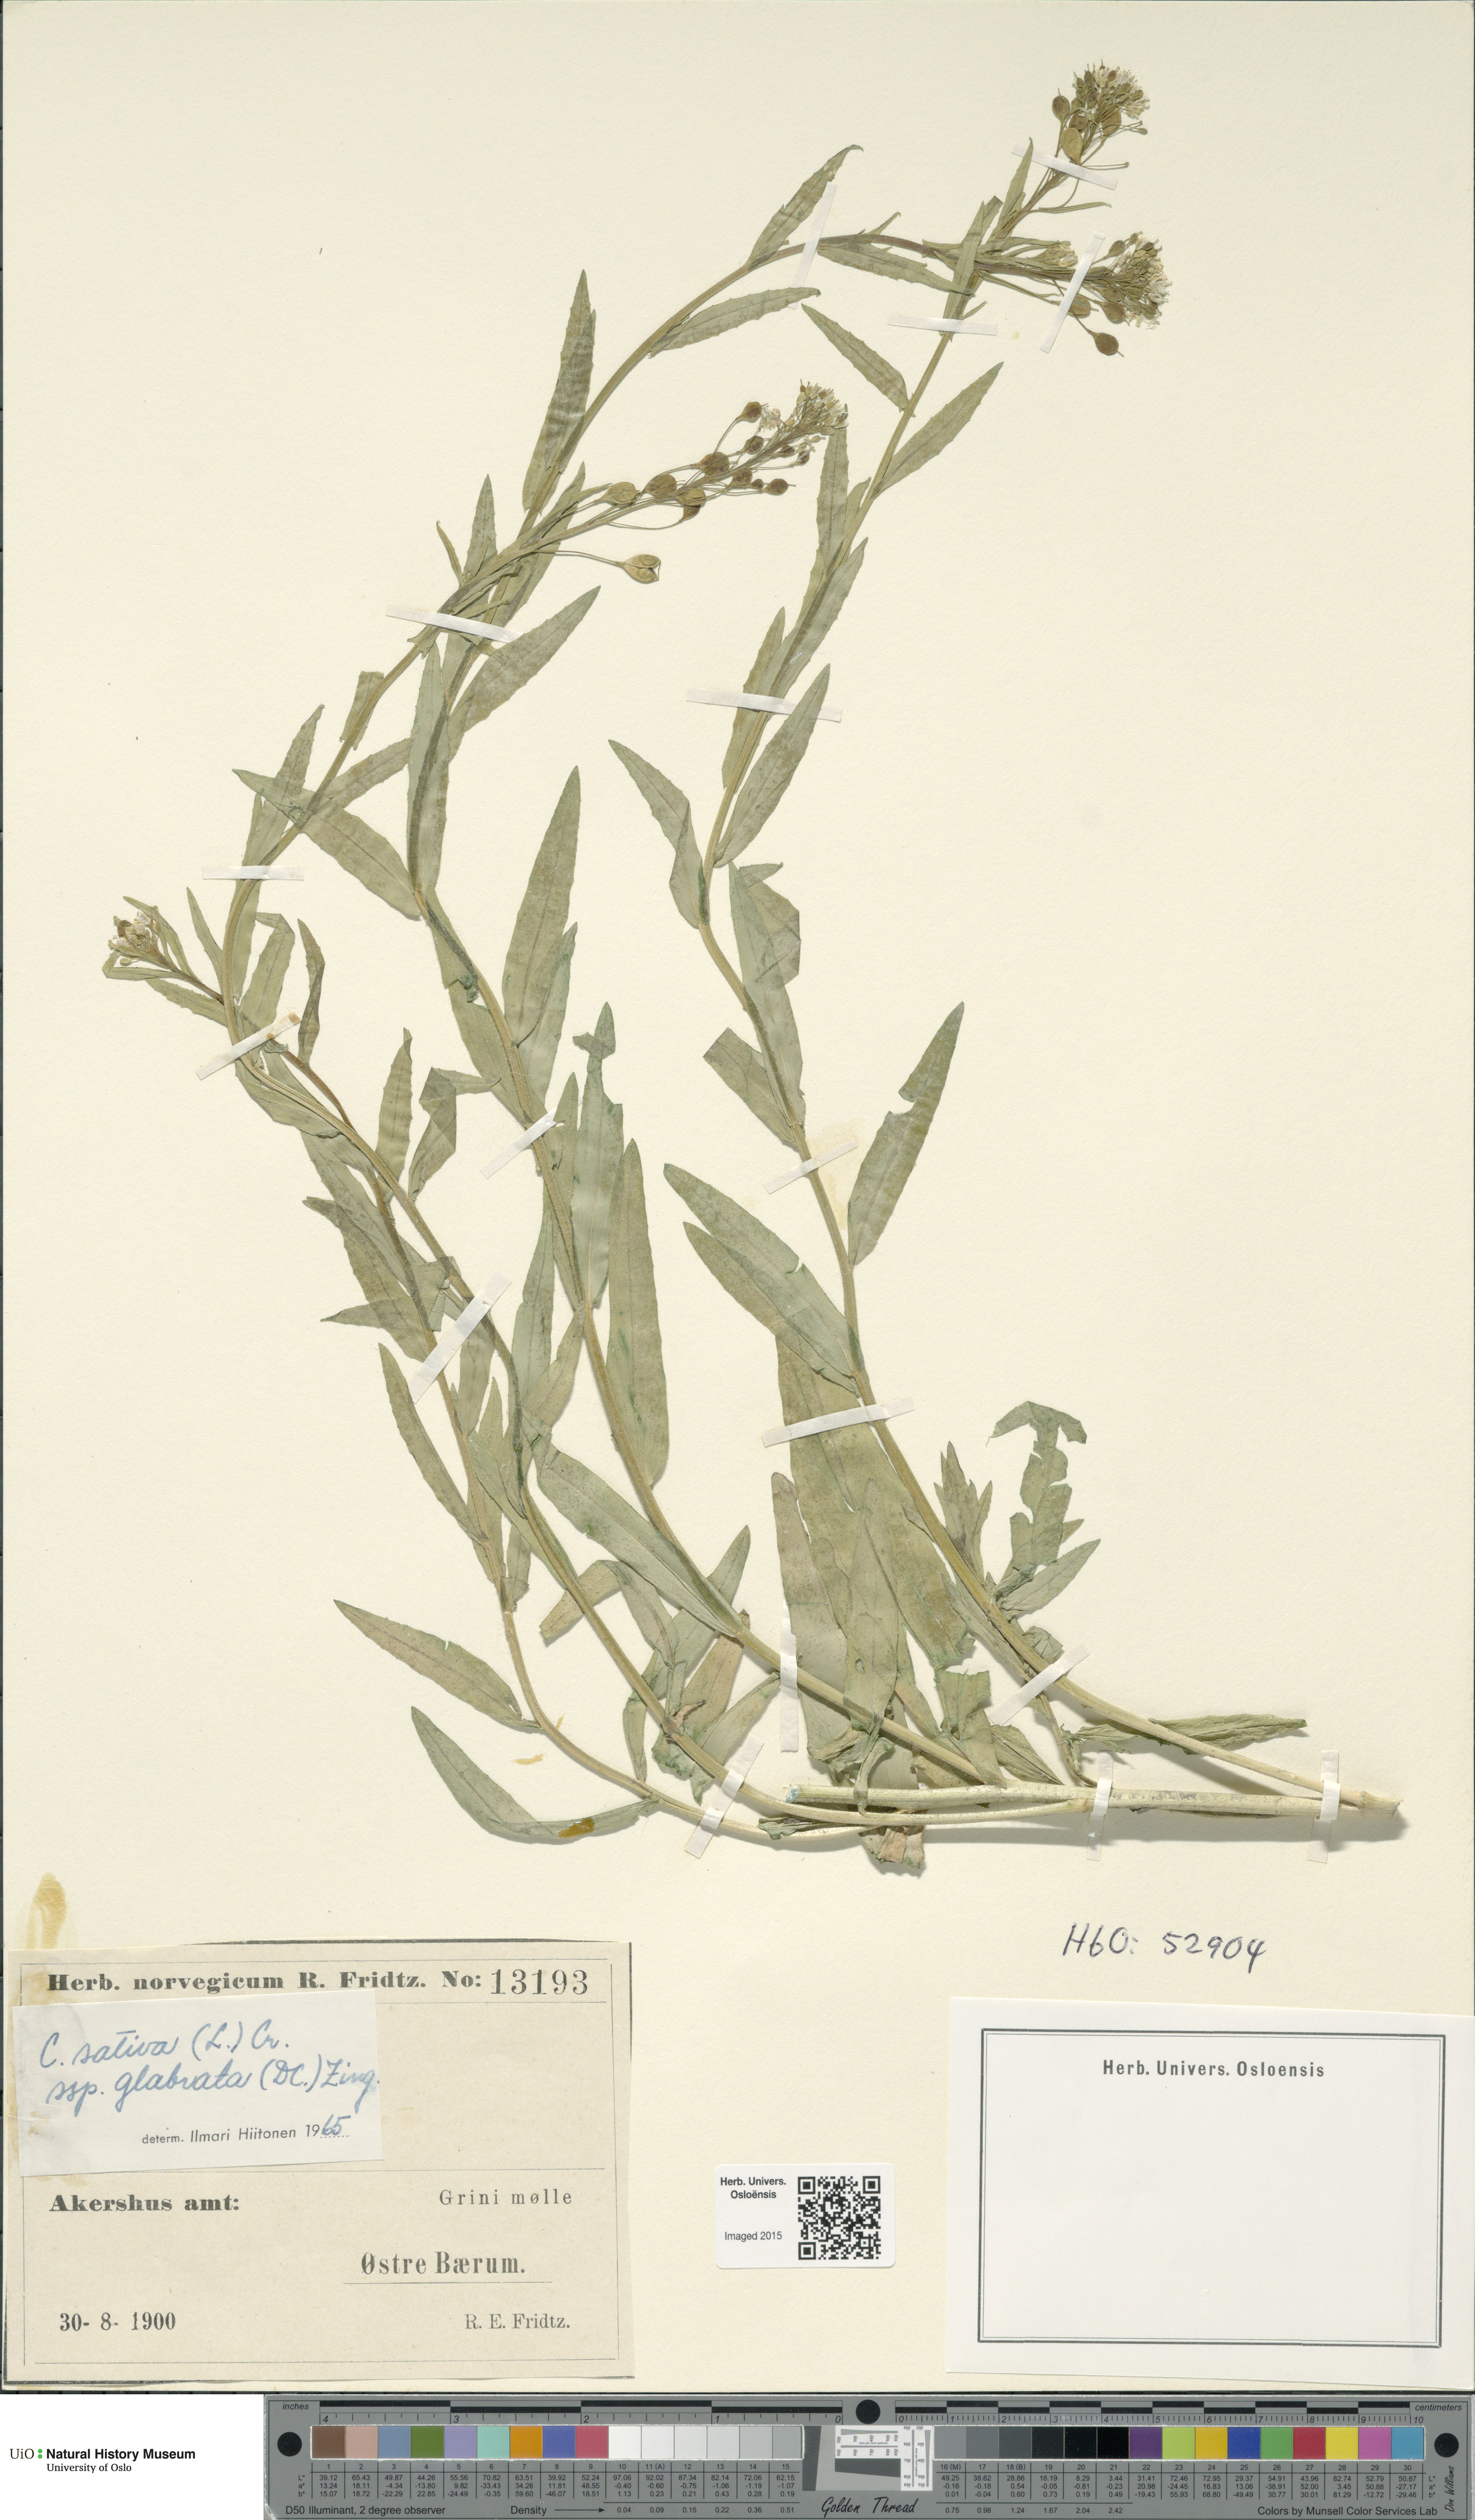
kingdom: Plantae
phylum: Tracheophyta
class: Magnoliopsida
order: Brassicales
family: Brassicaceae
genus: Camelina
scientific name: Camelina sativa
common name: Gold-of-pleasure
